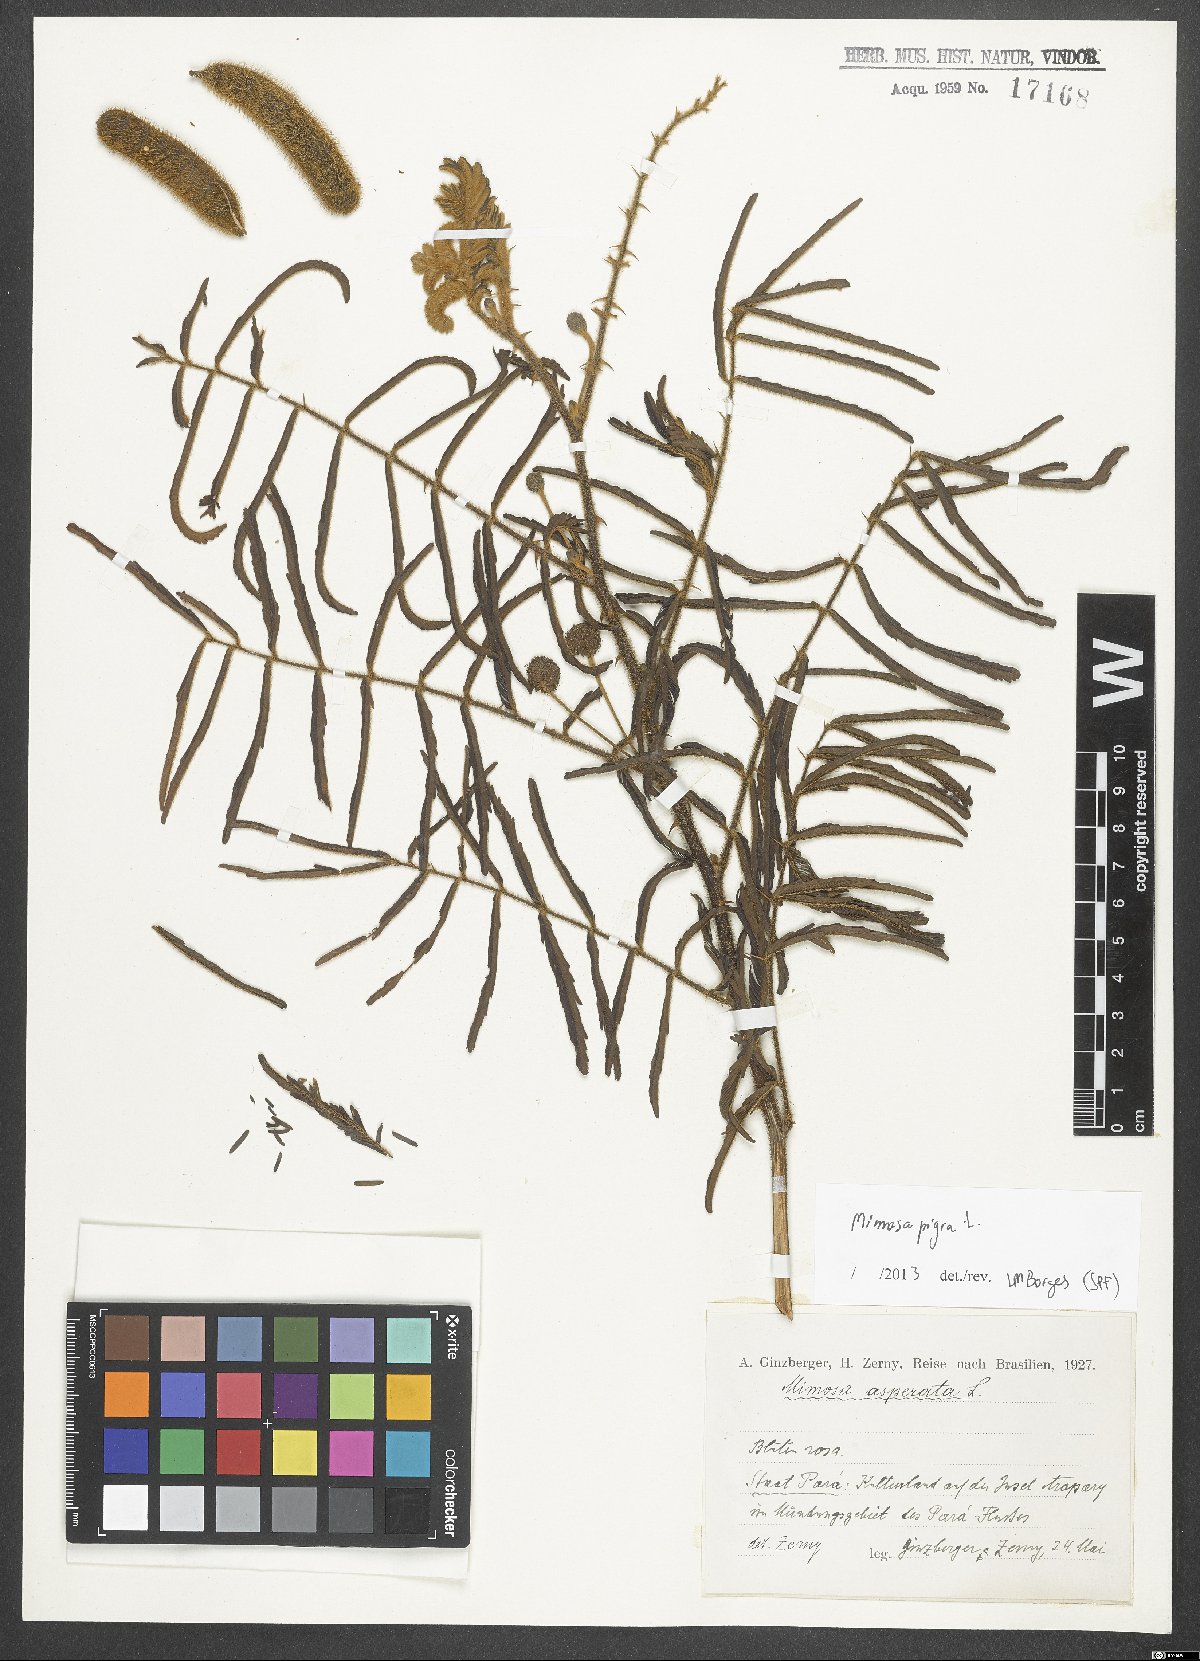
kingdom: Plantae
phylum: Tracheophyta
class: Magnoliopsida
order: Fabales
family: Fabaceae
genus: Mimosa
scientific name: Mimosa pigra
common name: Black mimosa
